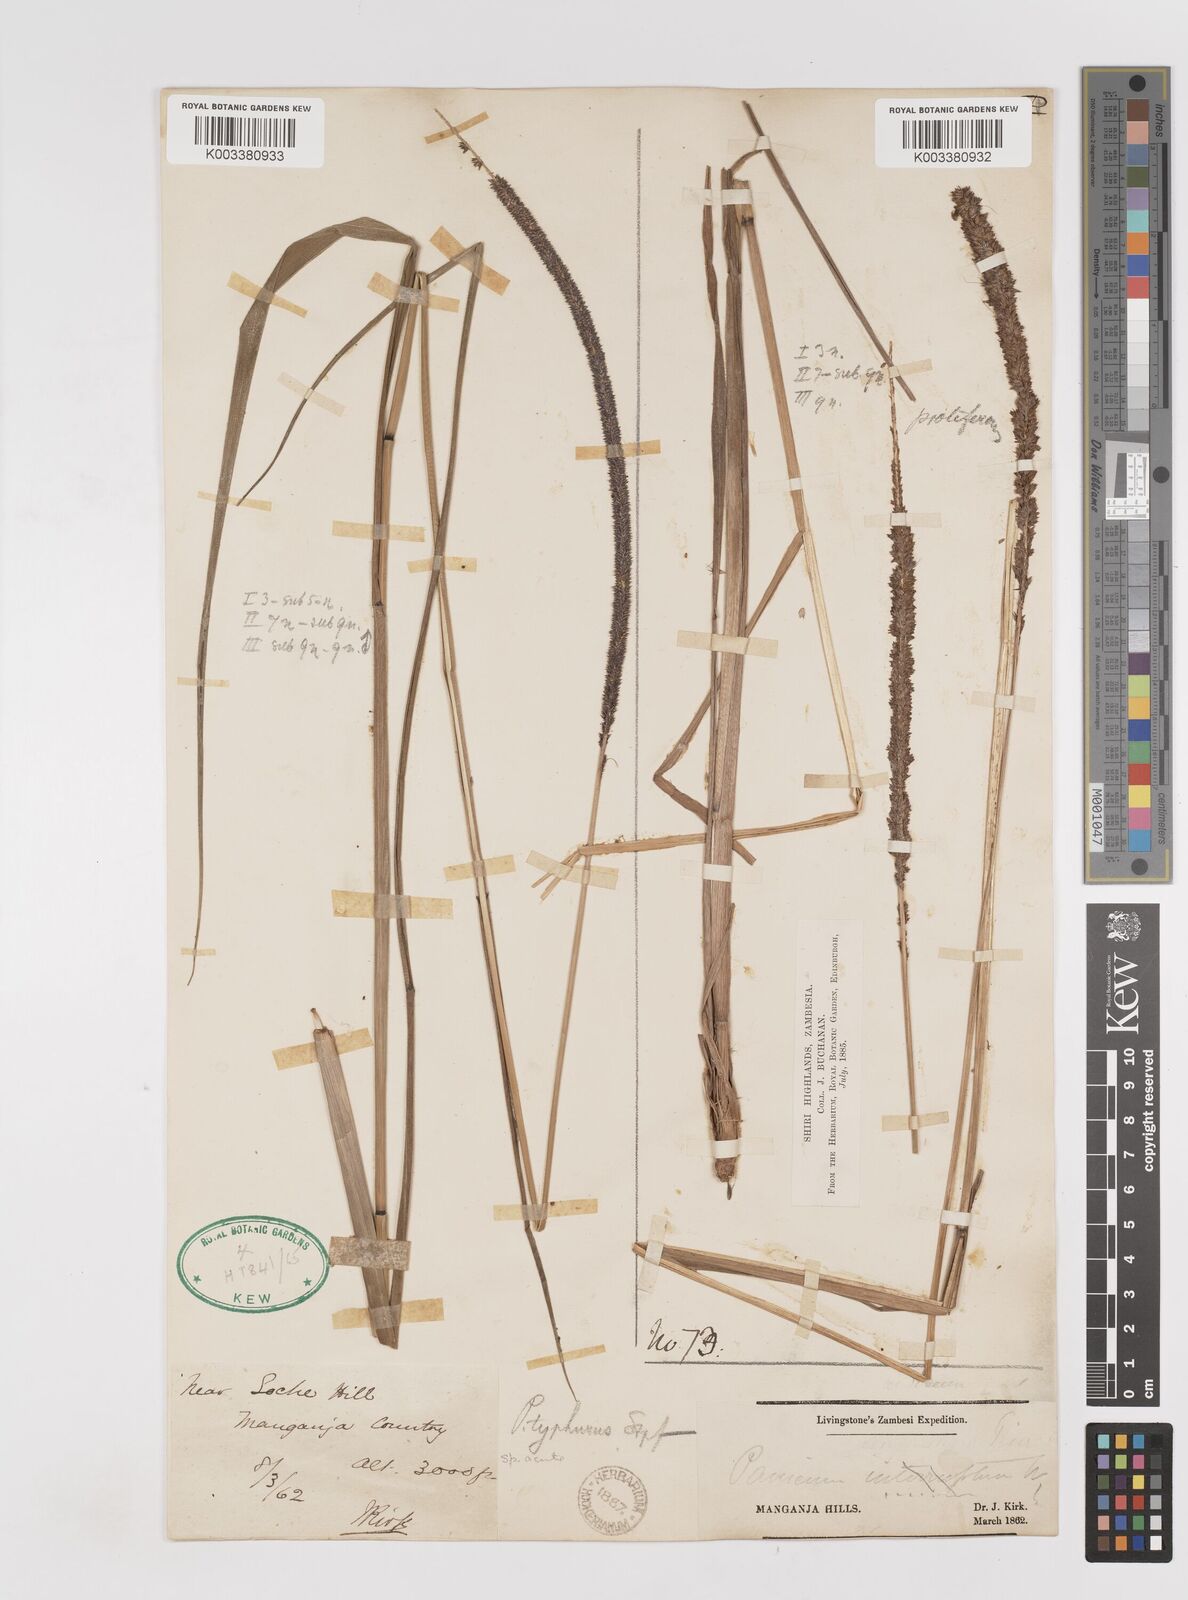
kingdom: Plantae
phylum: Tracheophyta
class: Liliopsida
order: Poales
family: Poaceae
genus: Sacciolepis
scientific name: Sacciolepis typhura
